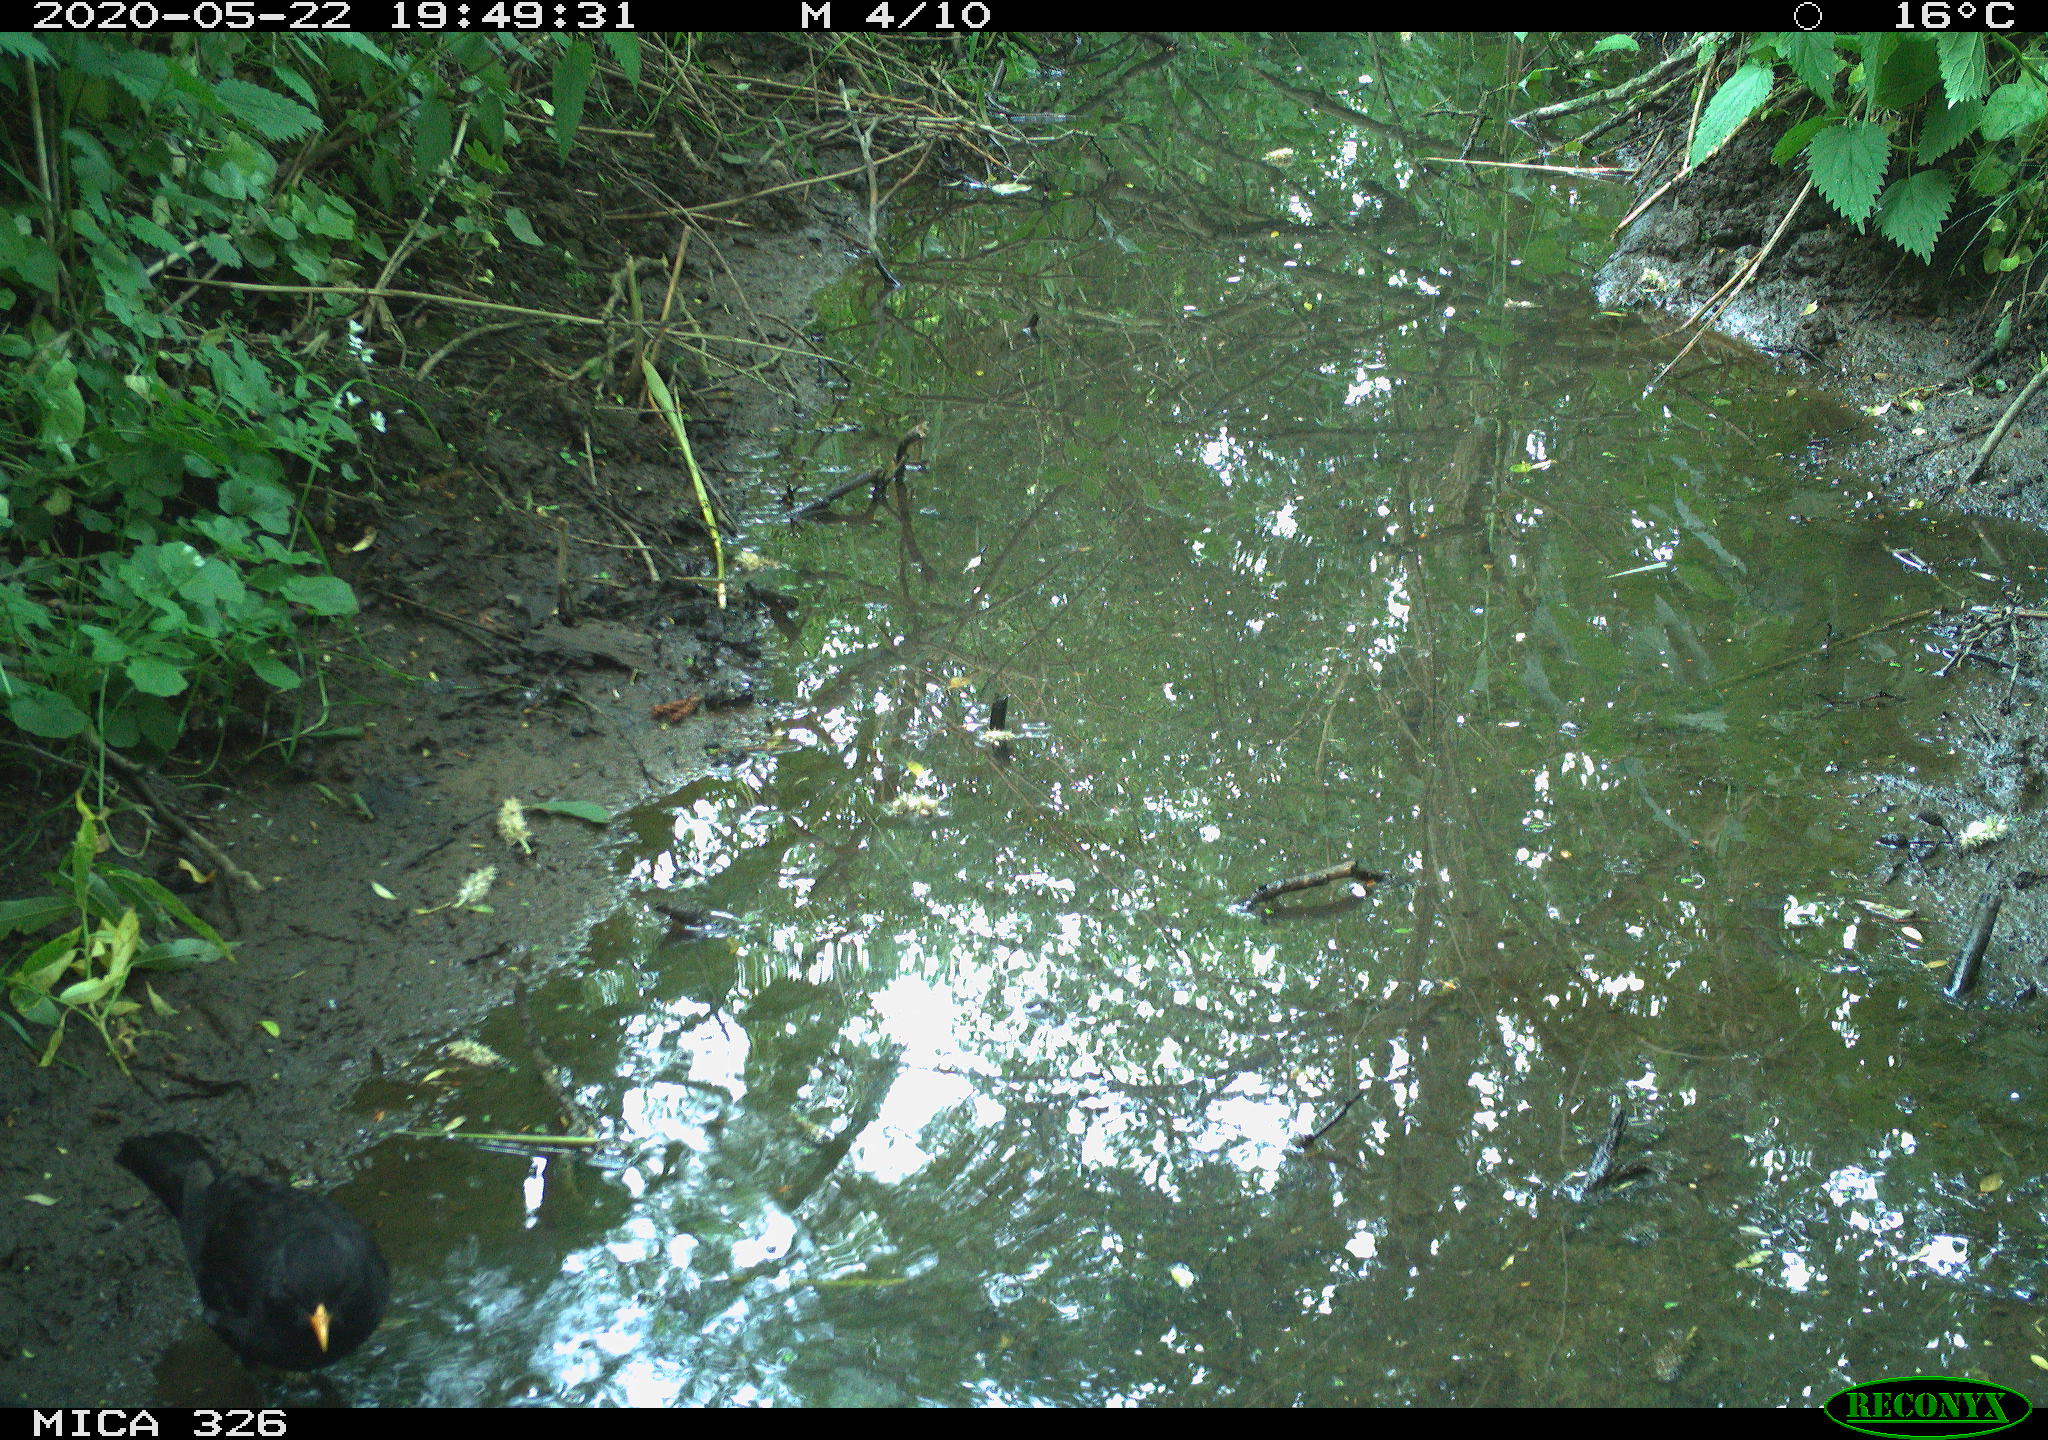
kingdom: Animalia
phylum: Chordata
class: Aves
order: Passeriformes
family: Turdidae
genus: Turdus
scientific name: Turdus merula
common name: Common blackbird
